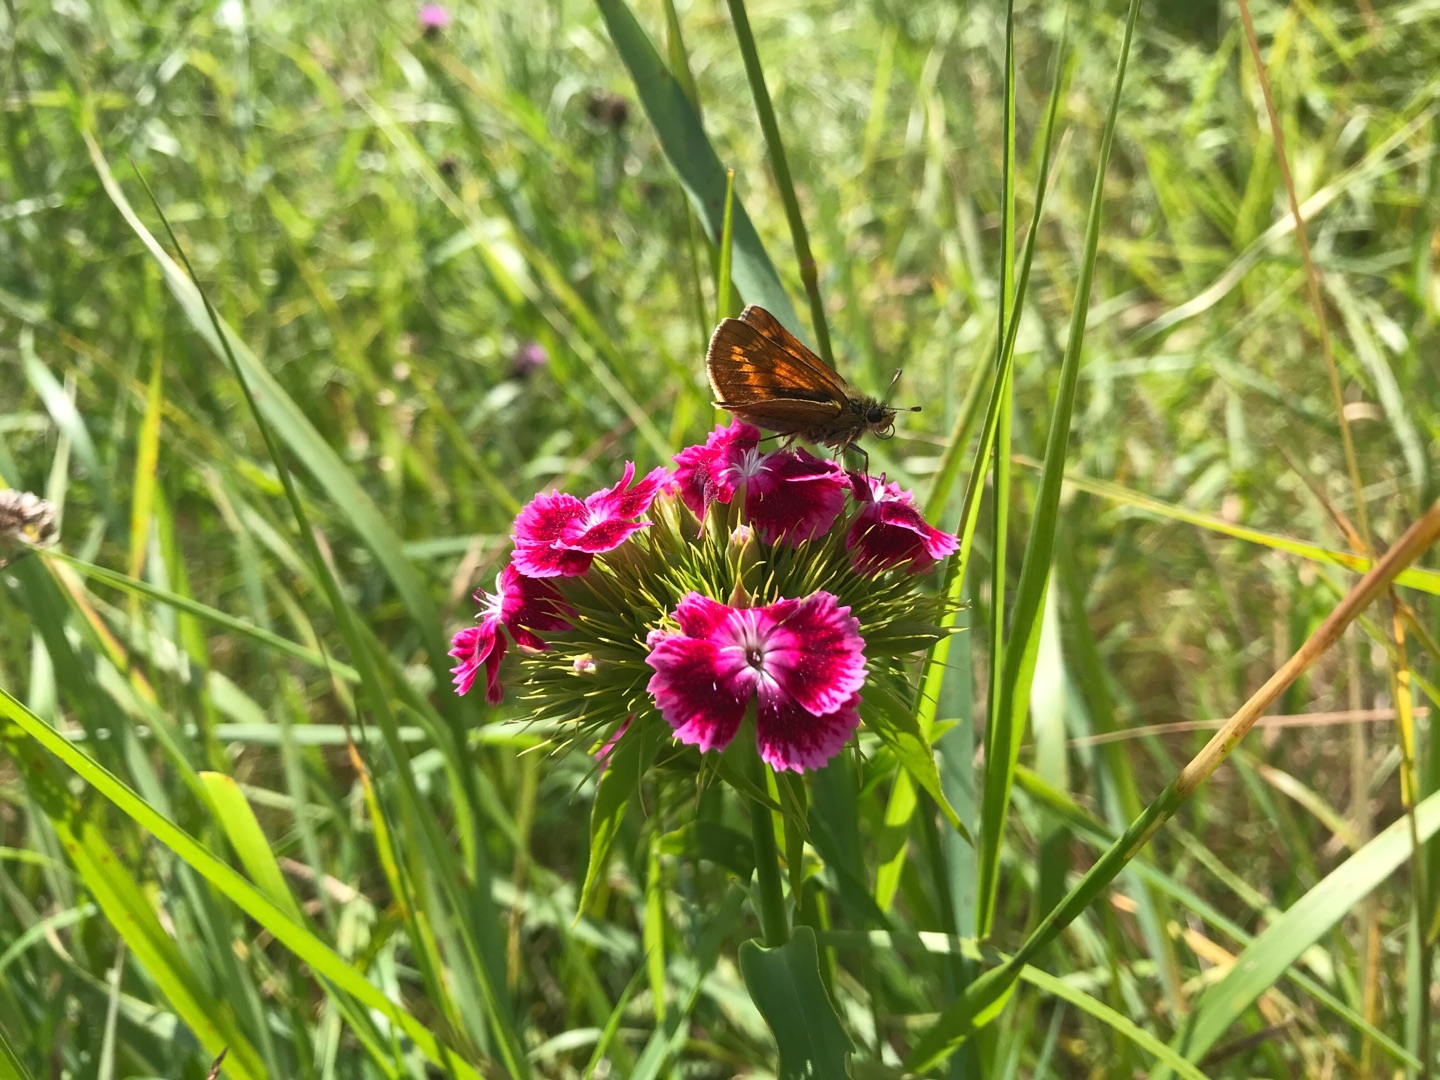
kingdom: Animalia
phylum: Arthropoda
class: Insecta
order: Lepidoptera
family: Hesperiidae
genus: Ochlodes
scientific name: Ochlodes venata
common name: Stor bredpande
